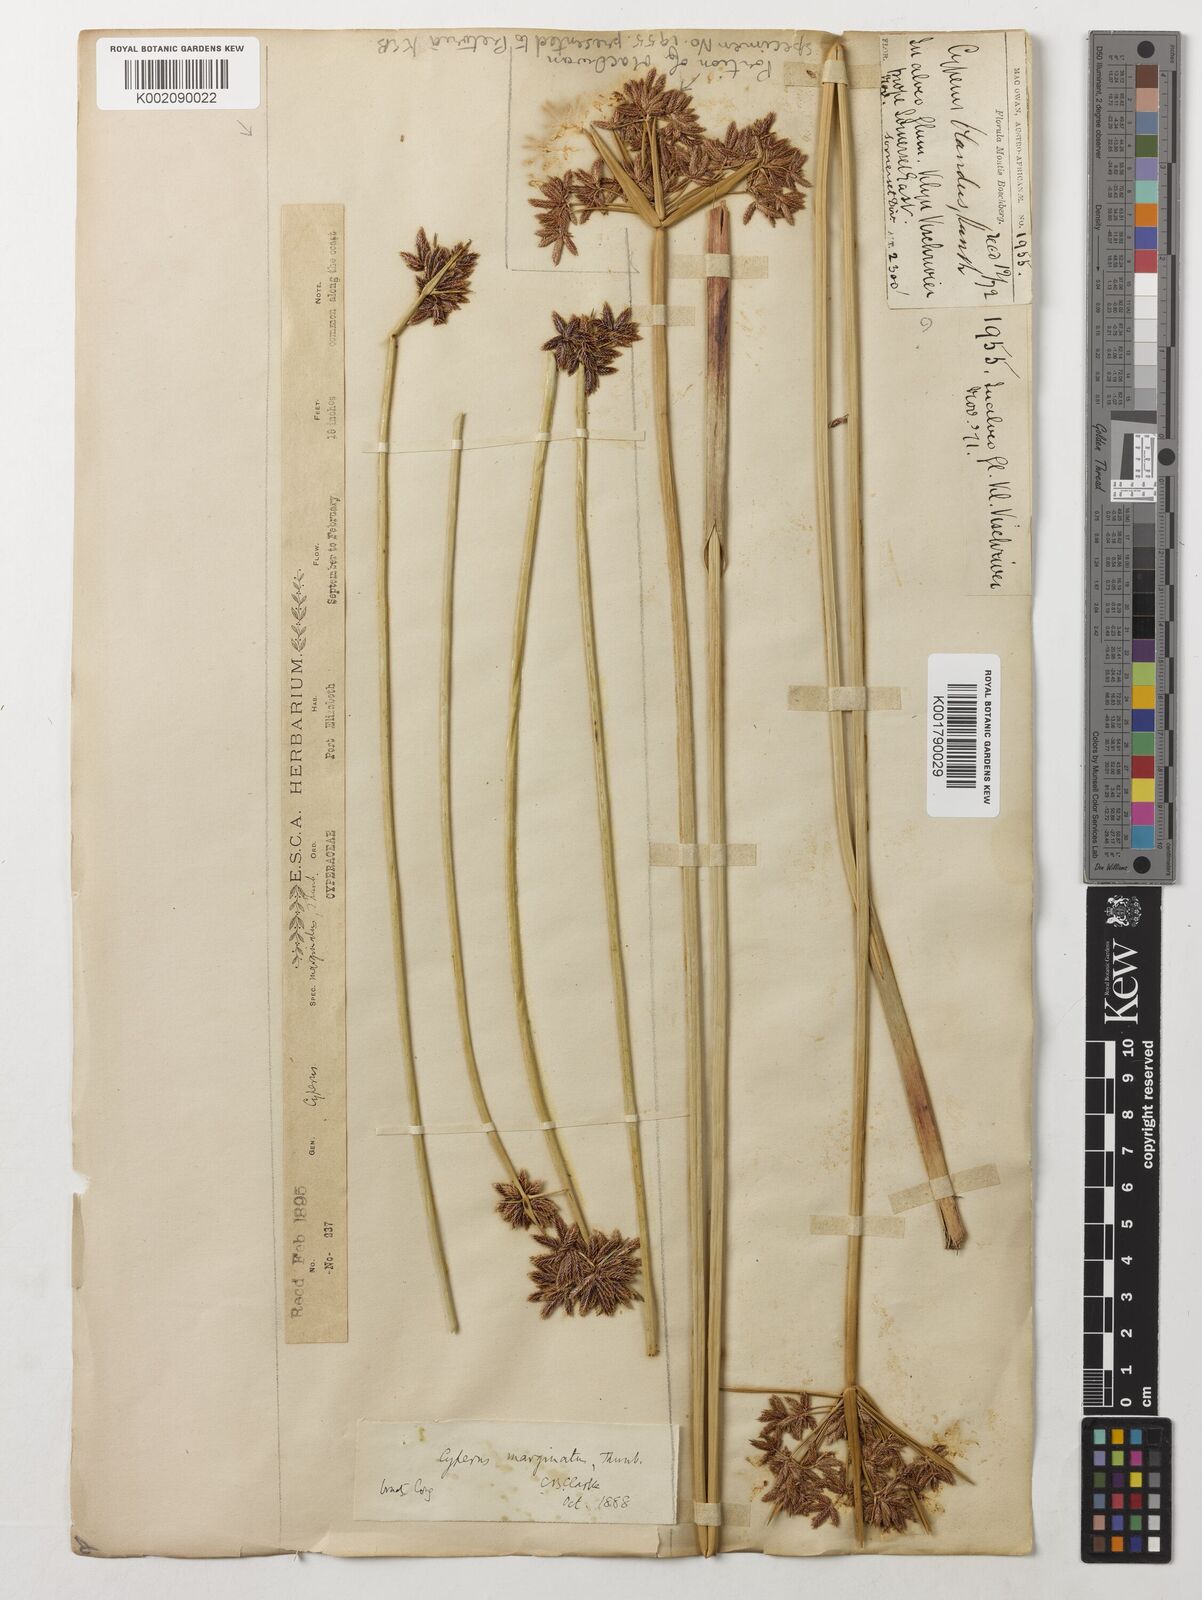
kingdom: Plantae
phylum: Tracheophyta
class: Liliopsida
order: Poales
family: Cyperaceae
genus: Cyperus
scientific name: Cyperus marginatus
